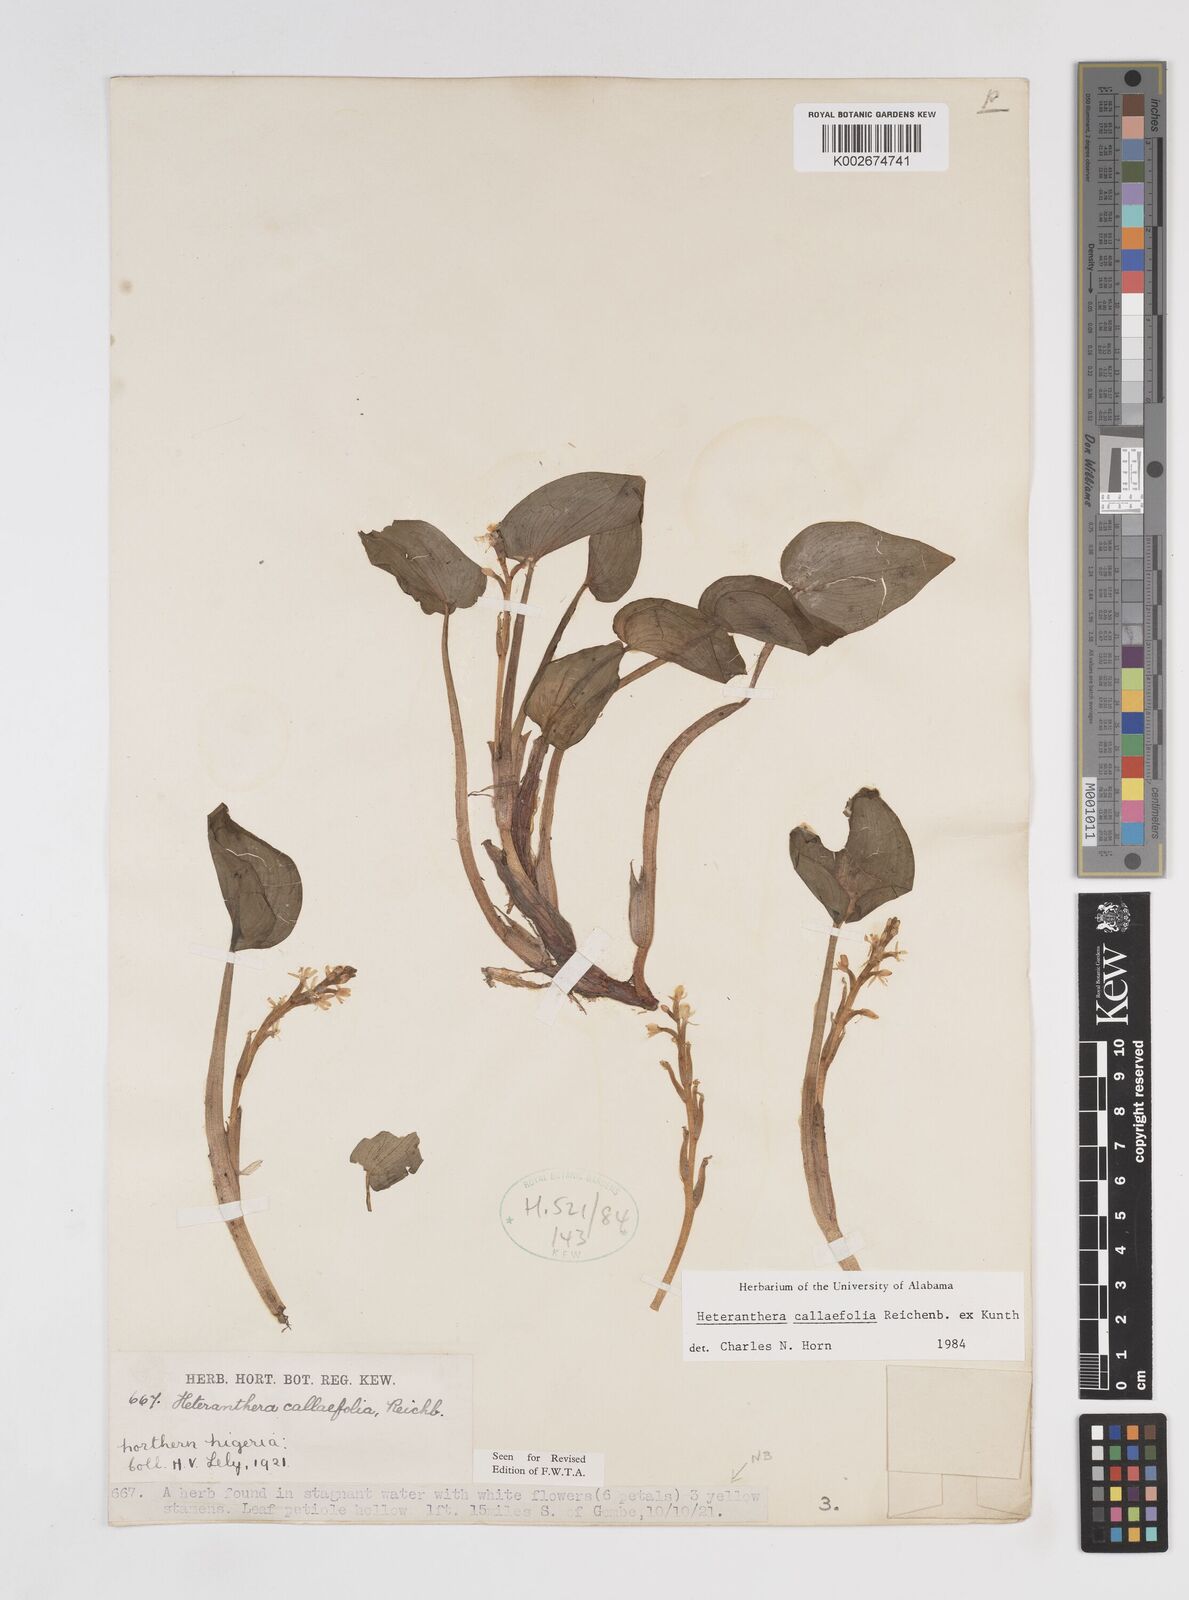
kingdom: Plantae
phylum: Tracheophyta
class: Liliopsida
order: Commelinales
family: Pontederiaceae
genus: Heteranthera
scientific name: Heteranthera callifolia
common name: Mud plantain
